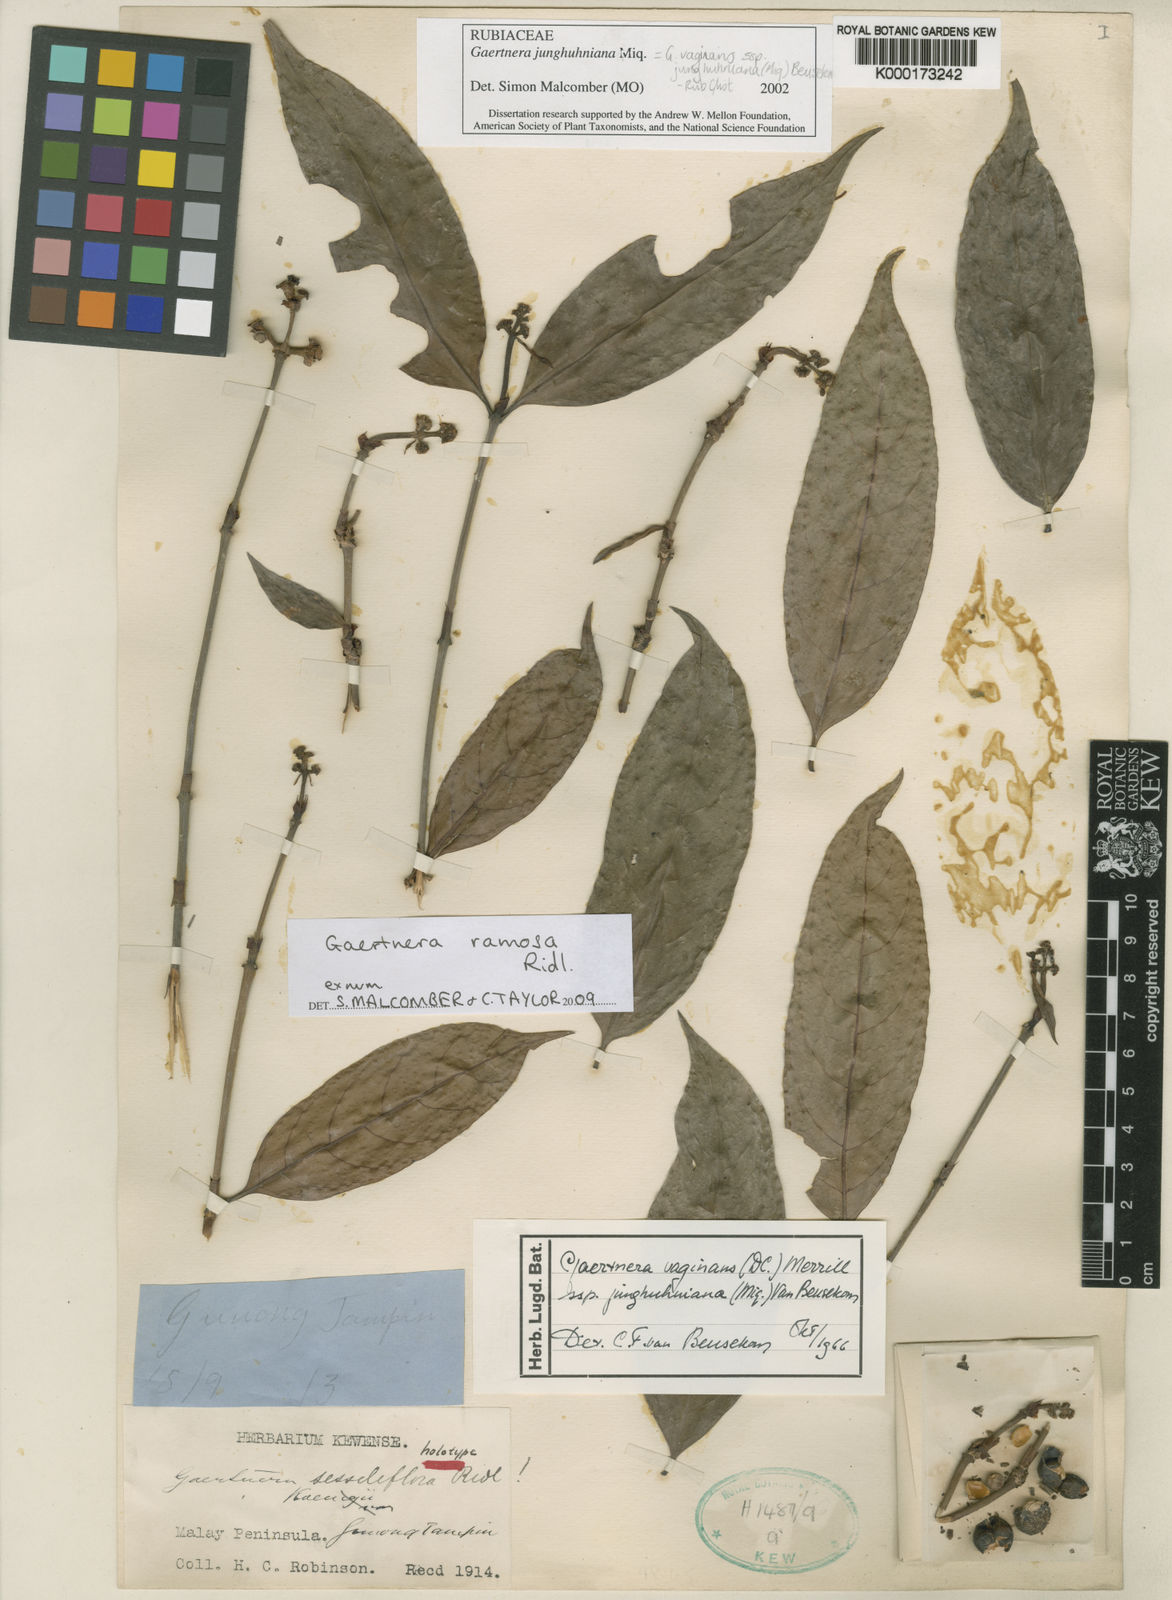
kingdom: Plantae
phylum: Tracheophyta
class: Magnoliopsida
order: Gentianales
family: Rubiaceae
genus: Gaertnera
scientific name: Gaertnera junghuhniana
